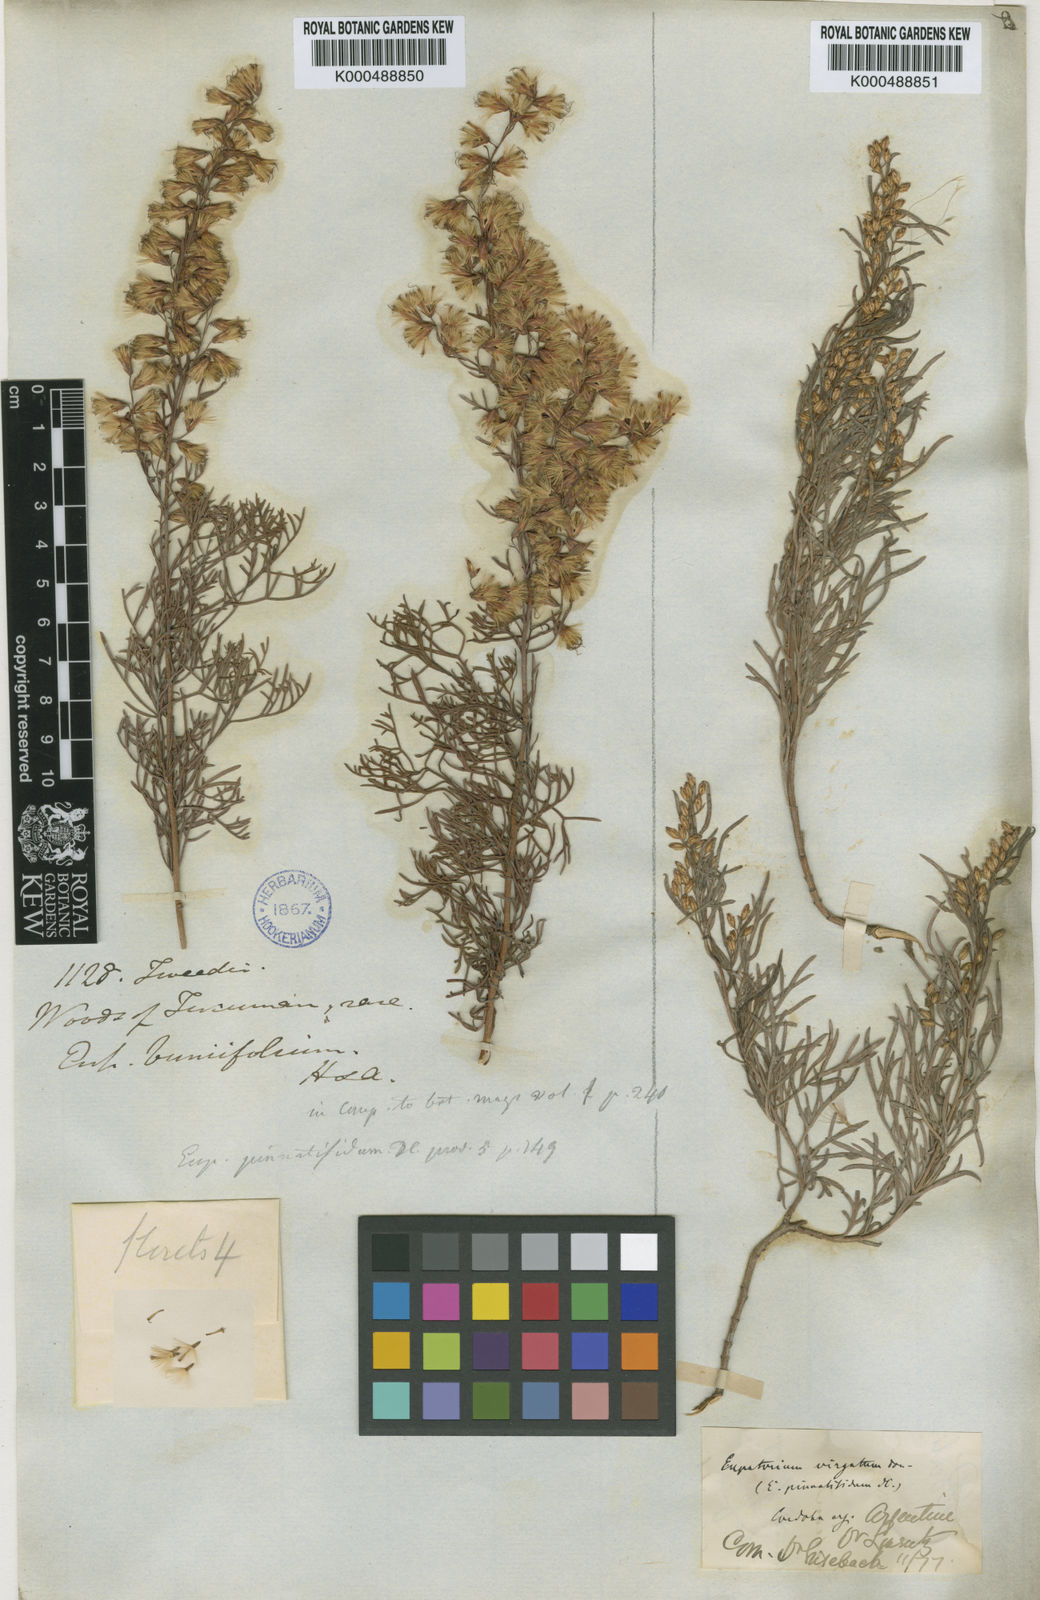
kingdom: Plantae
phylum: Tracheophyta
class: Magnoliopsida
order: Asterales
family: Asteraceae
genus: Acanthostyles
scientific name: Acanthostyles buniifolius
